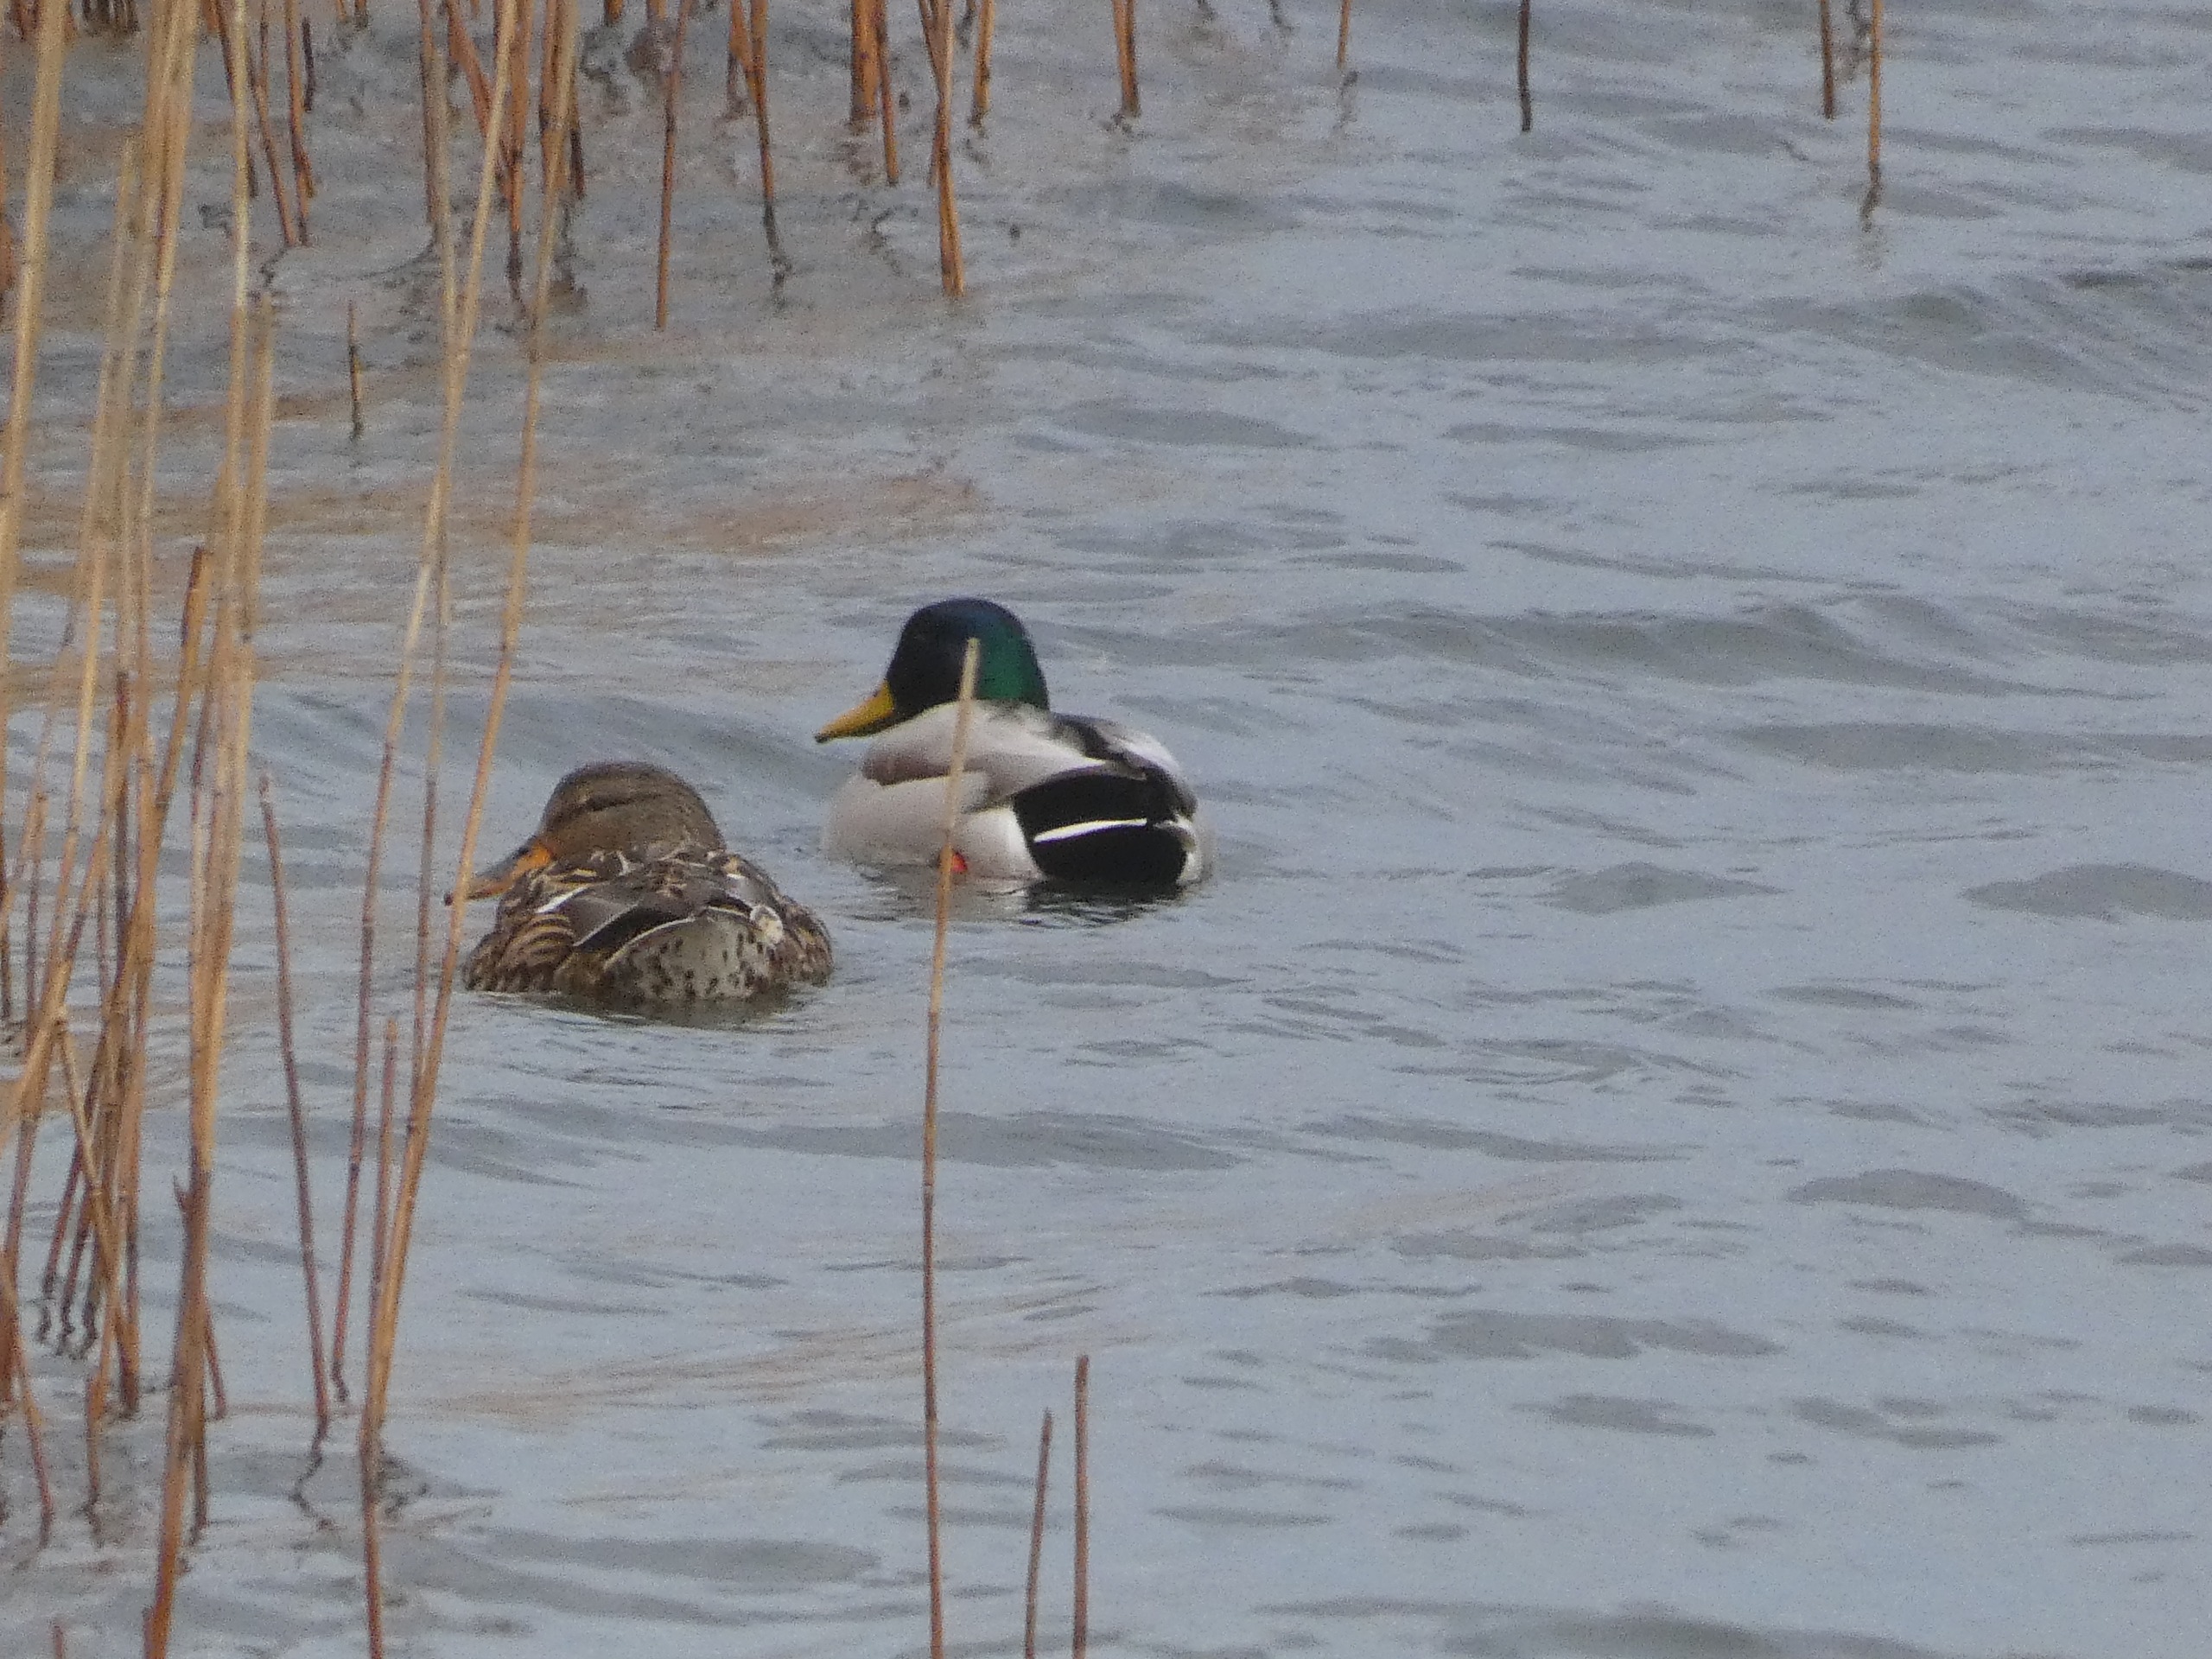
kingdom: Animalia
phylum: Chordata
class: Aves
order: Anseriformes
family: Anatidae
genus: Anas
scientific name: Anas platyrhynchos
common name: Gråand
